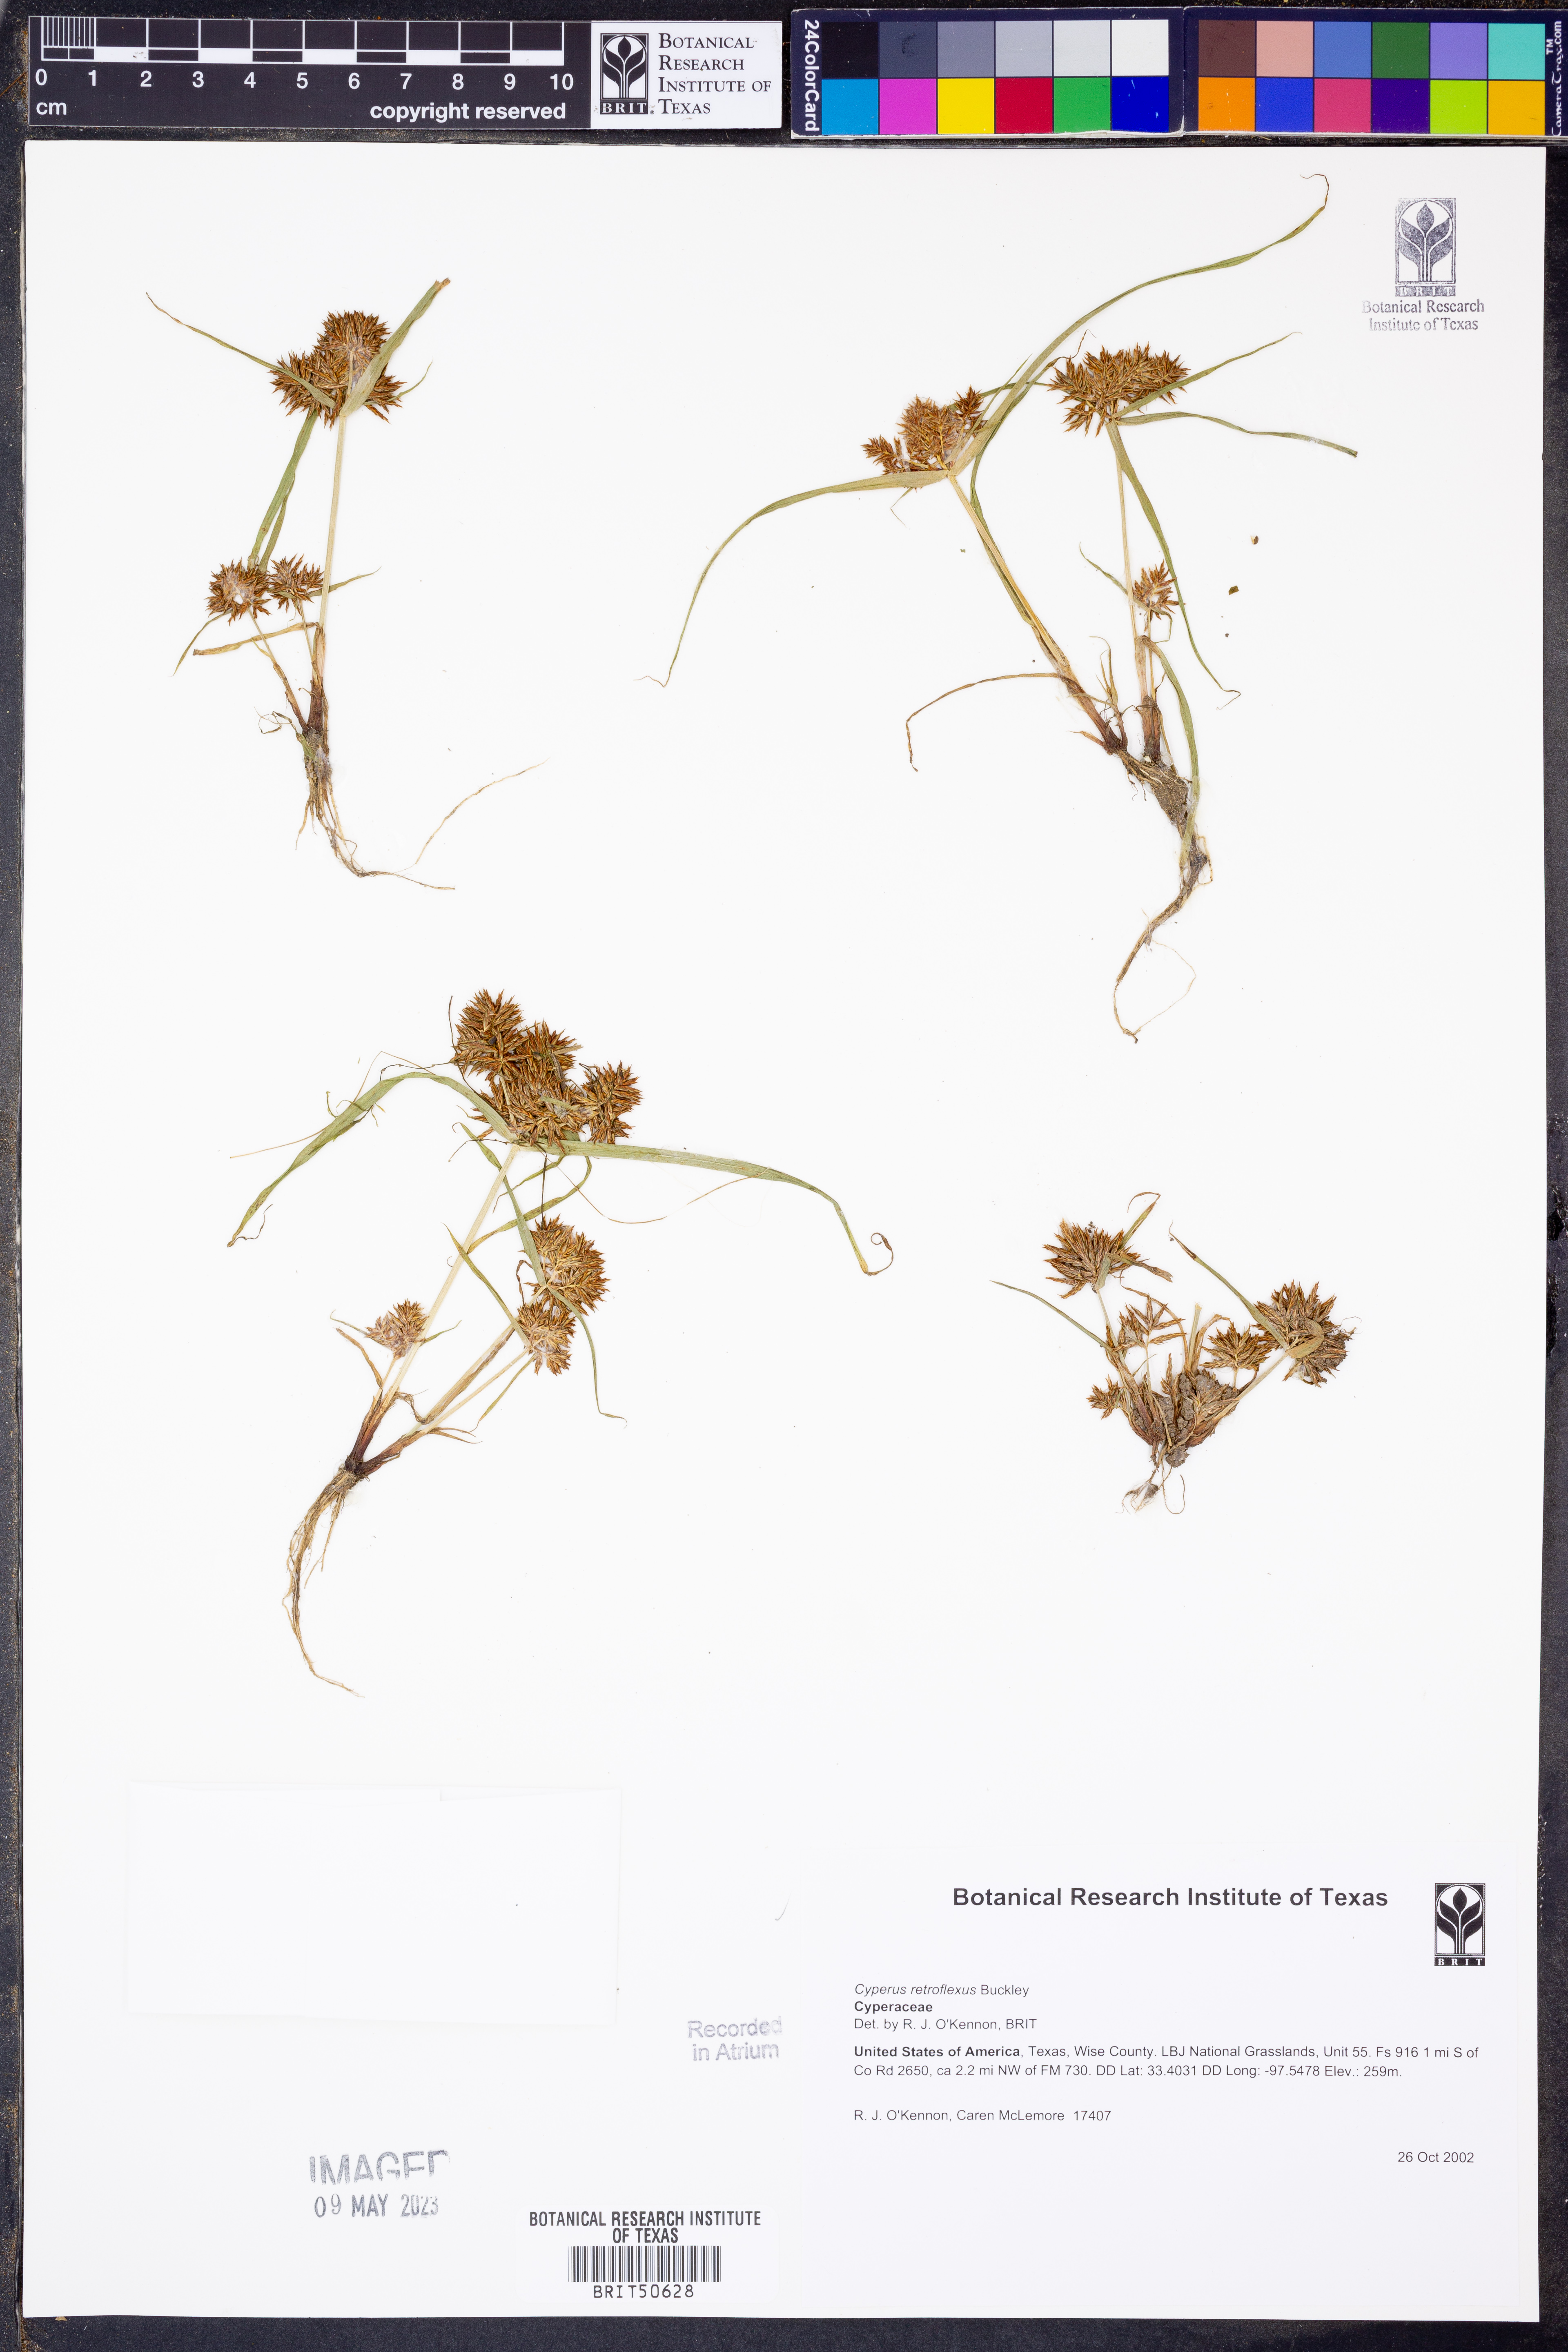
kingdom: Plantae
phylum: Tracheophyta
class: Liliopsida
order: Poales
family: Cyperaceae
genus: Cyperus
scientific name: Cyperus retroflexus
